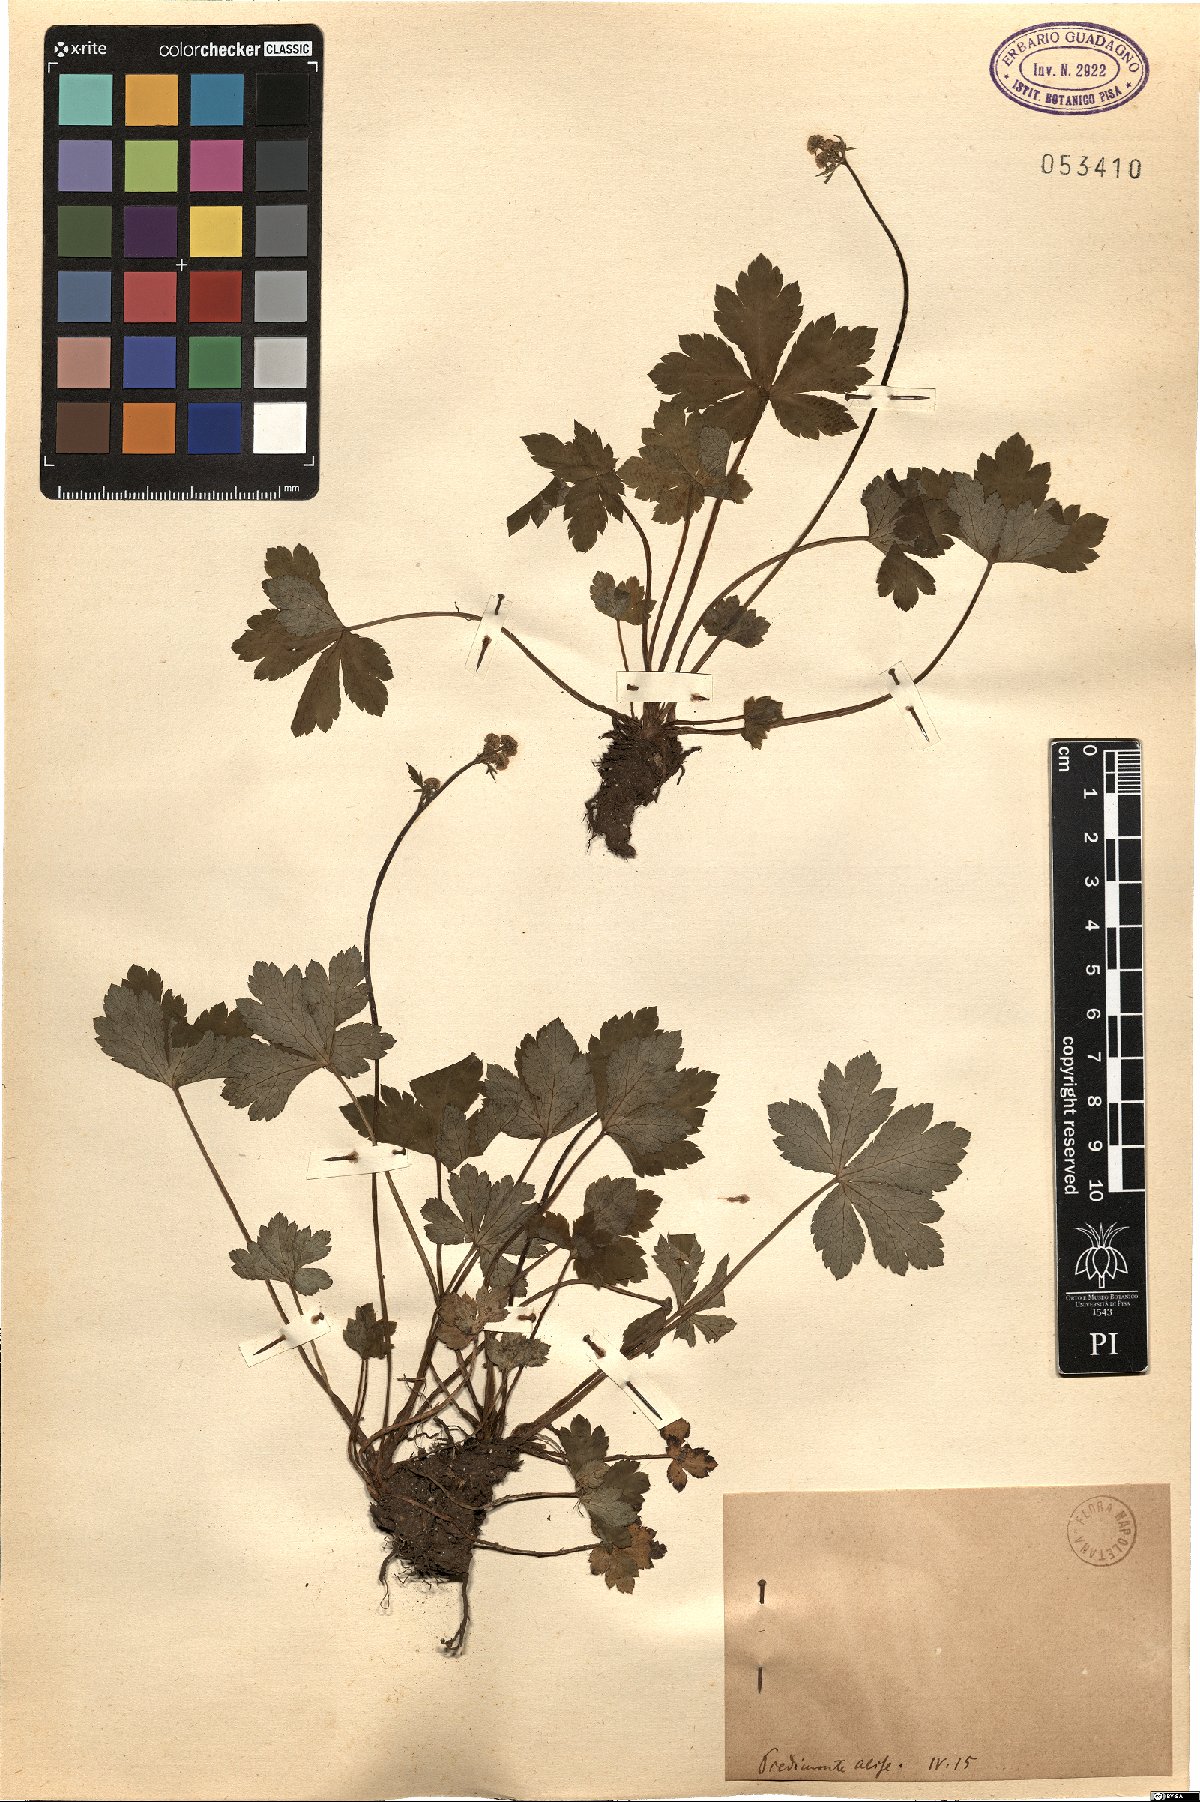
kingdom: Plantae
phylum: Tracheophyta
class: Magnoliopsida
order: Apiales
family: Apiaceae
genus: Sanicula
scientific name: Sanicula
